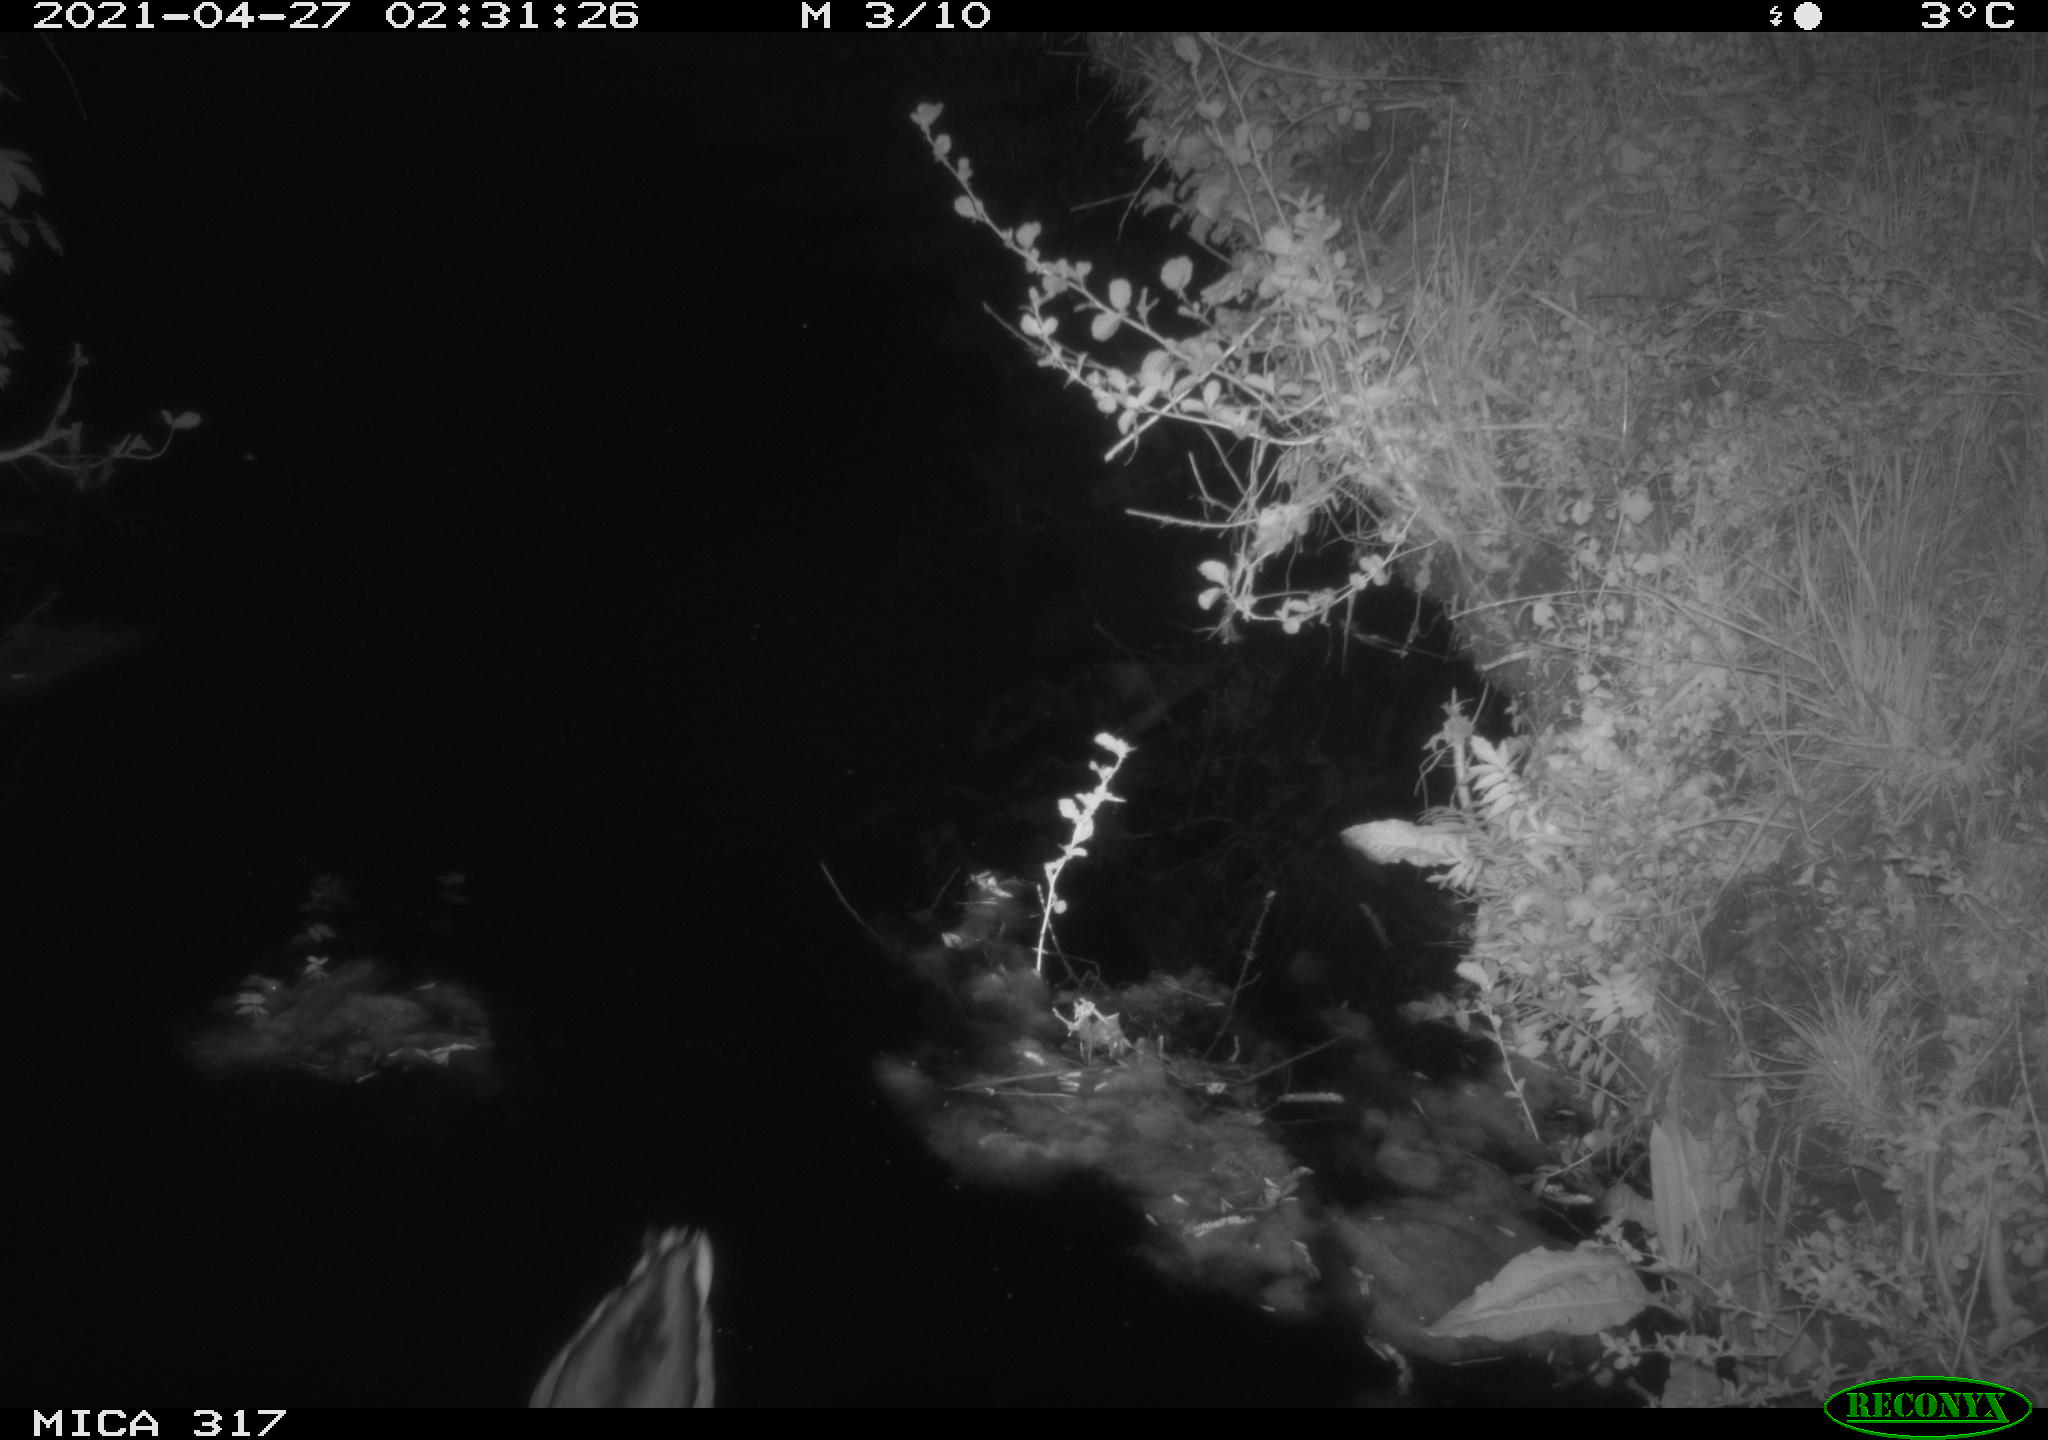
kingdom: Animalia
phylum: Chordata
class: Aves
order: Anseriformes
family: Anatidae
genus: Anas
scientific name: Anas
